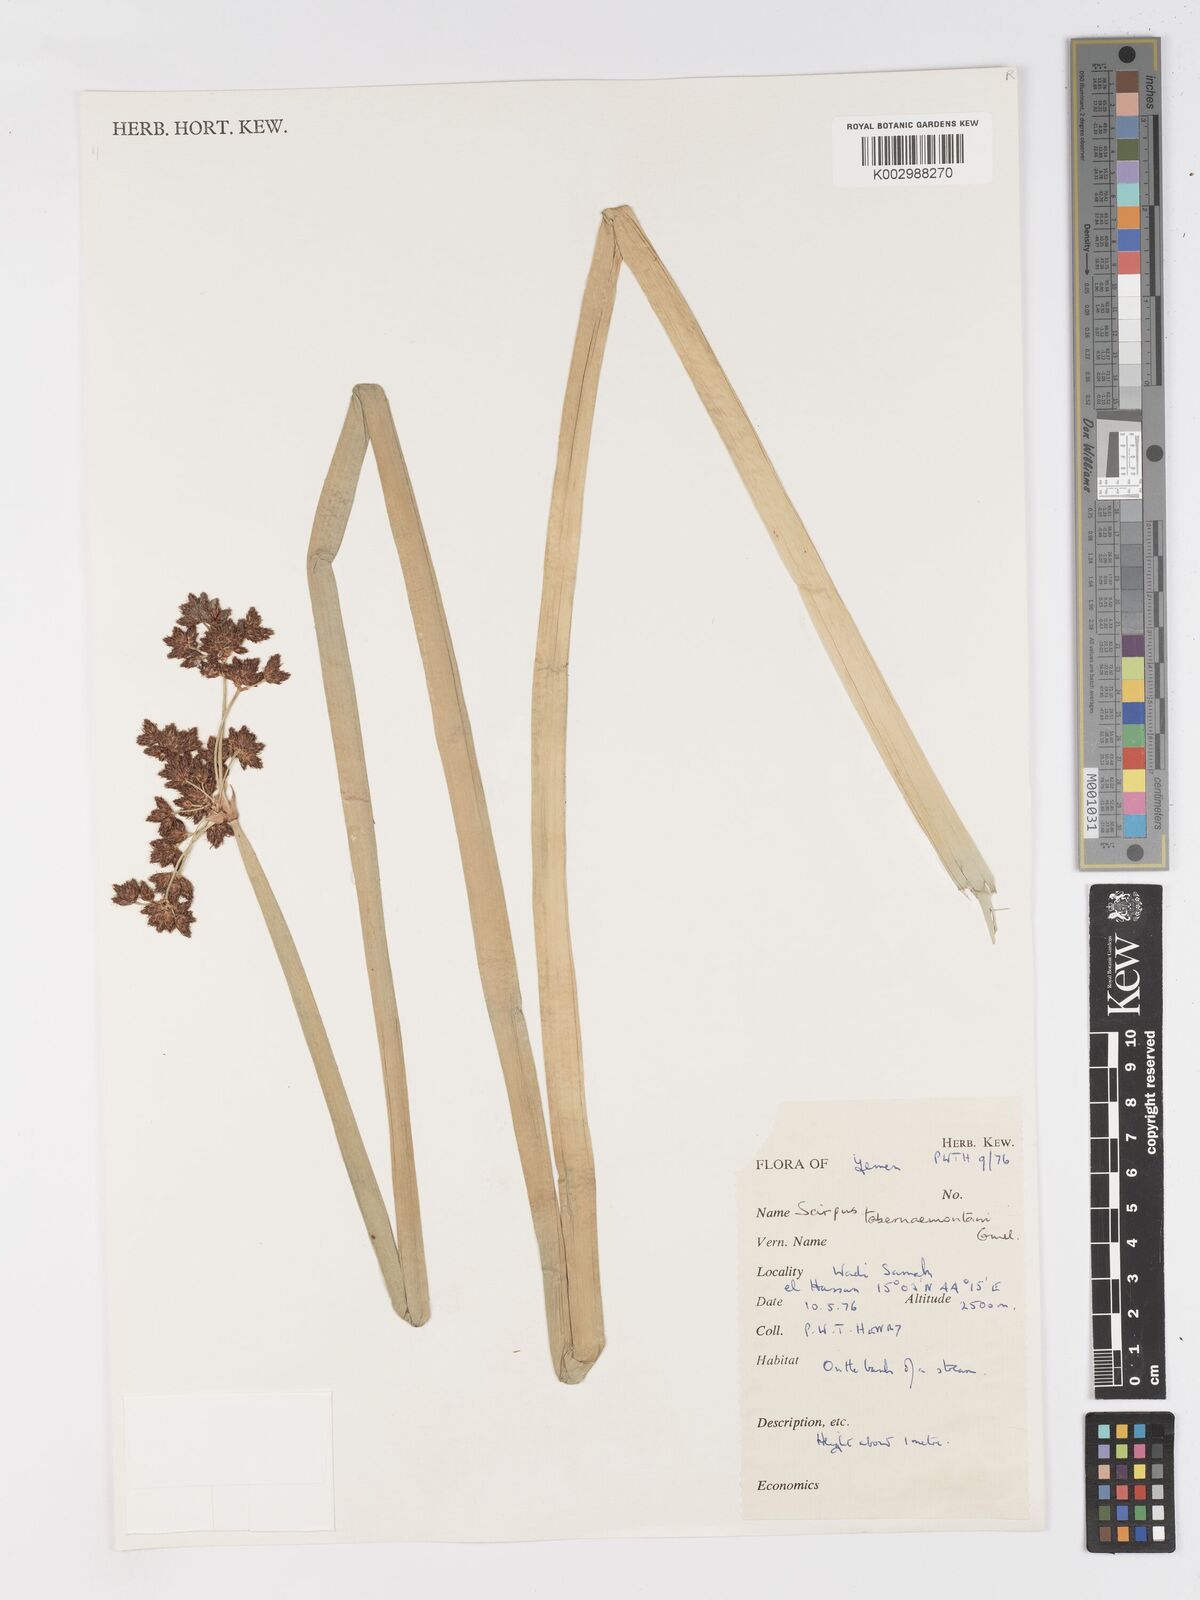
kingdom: Plantae
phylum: Tracheophyta
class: Liliopsida
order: Poales
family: Cyperaceae
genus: Schoenoplectus
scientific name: Schoenoplectus tabernaemontani
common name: Grey club-rush
